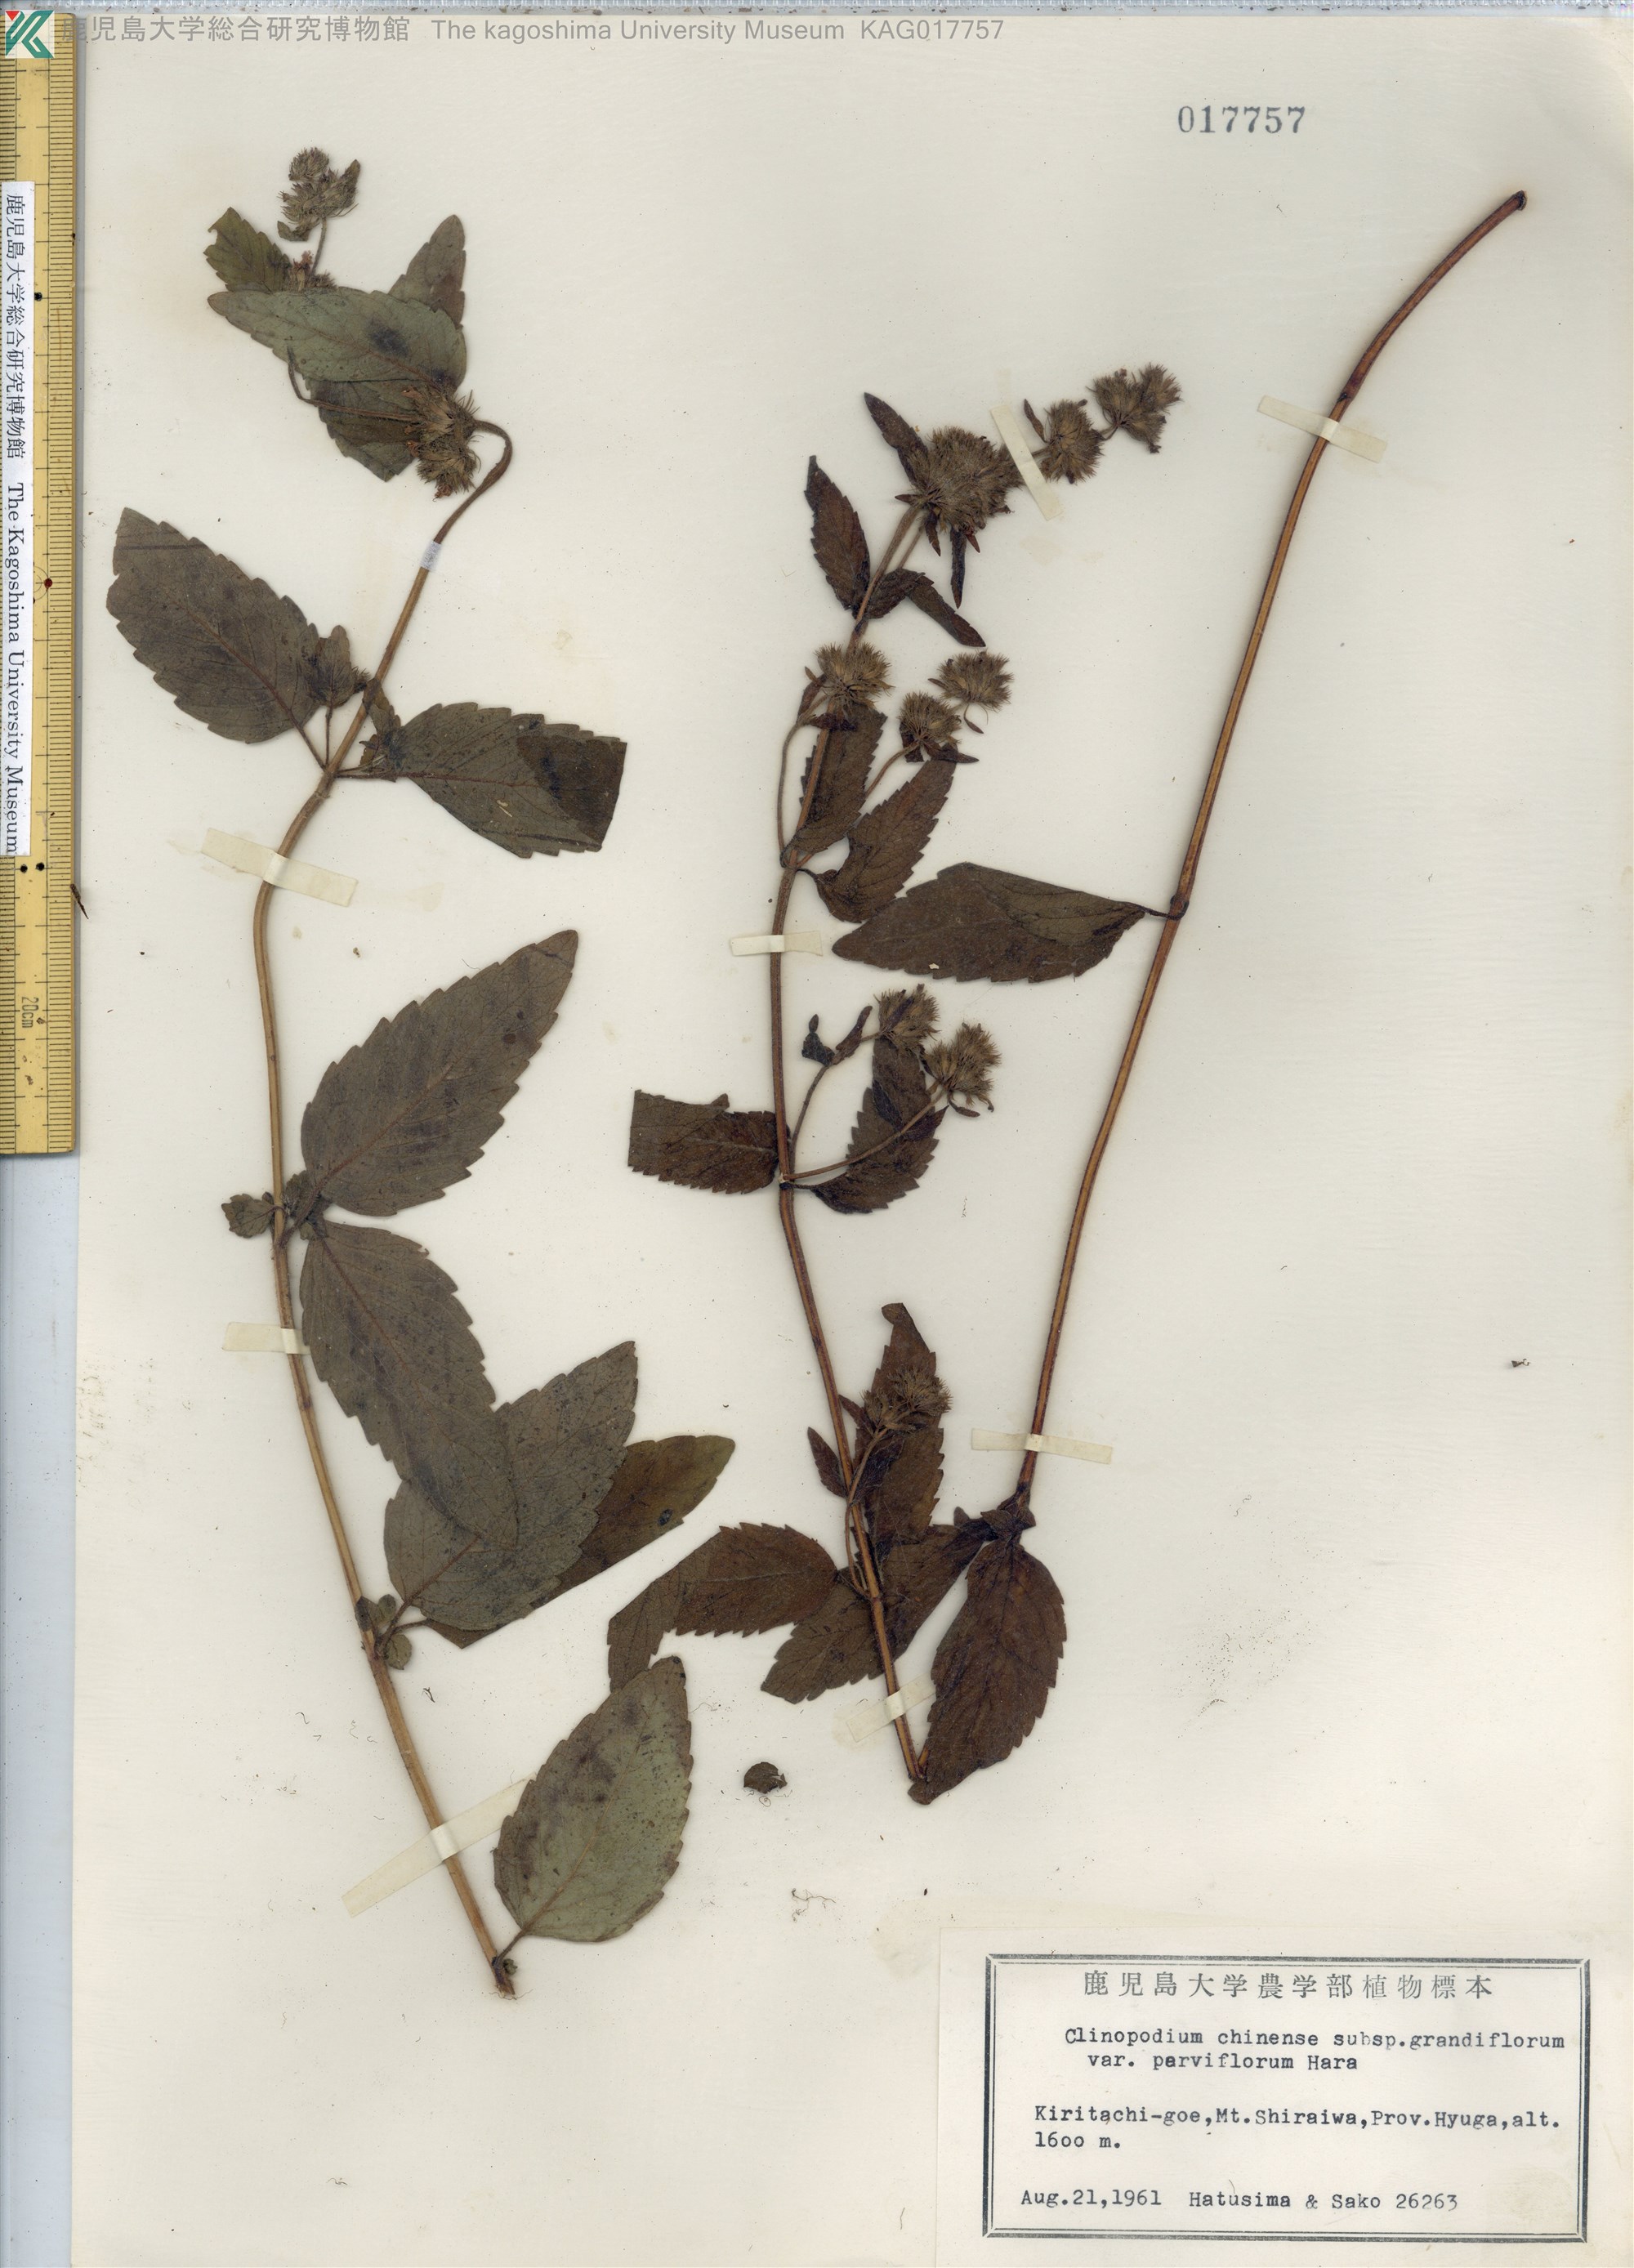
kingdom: Plantae
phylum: Tracheophyta
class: Magnoliopsida
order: Lamiales
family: Lamiaceae
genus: Clinopodium
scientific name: Clinopodium chinense
